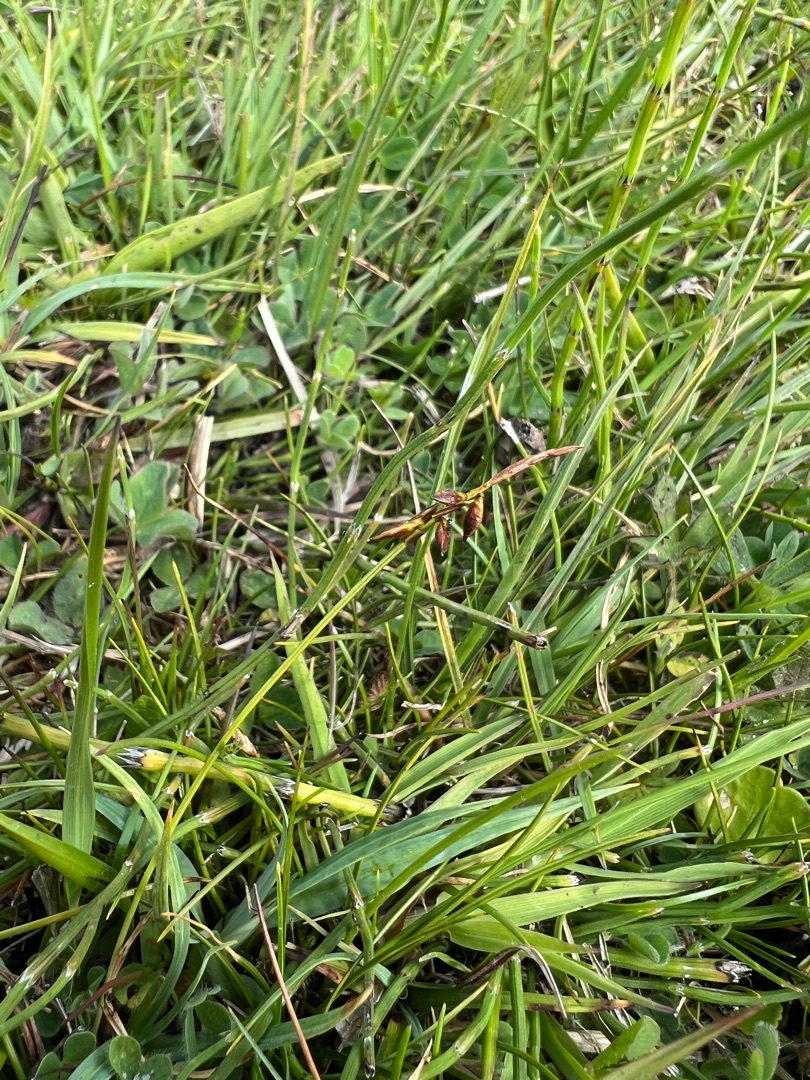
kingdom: Plantae
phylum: Tracheophyta
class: Liliopsida
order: Poales
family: Cyperaceae
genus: Carex
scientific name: Carex pulicaris
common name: Loppe-star
